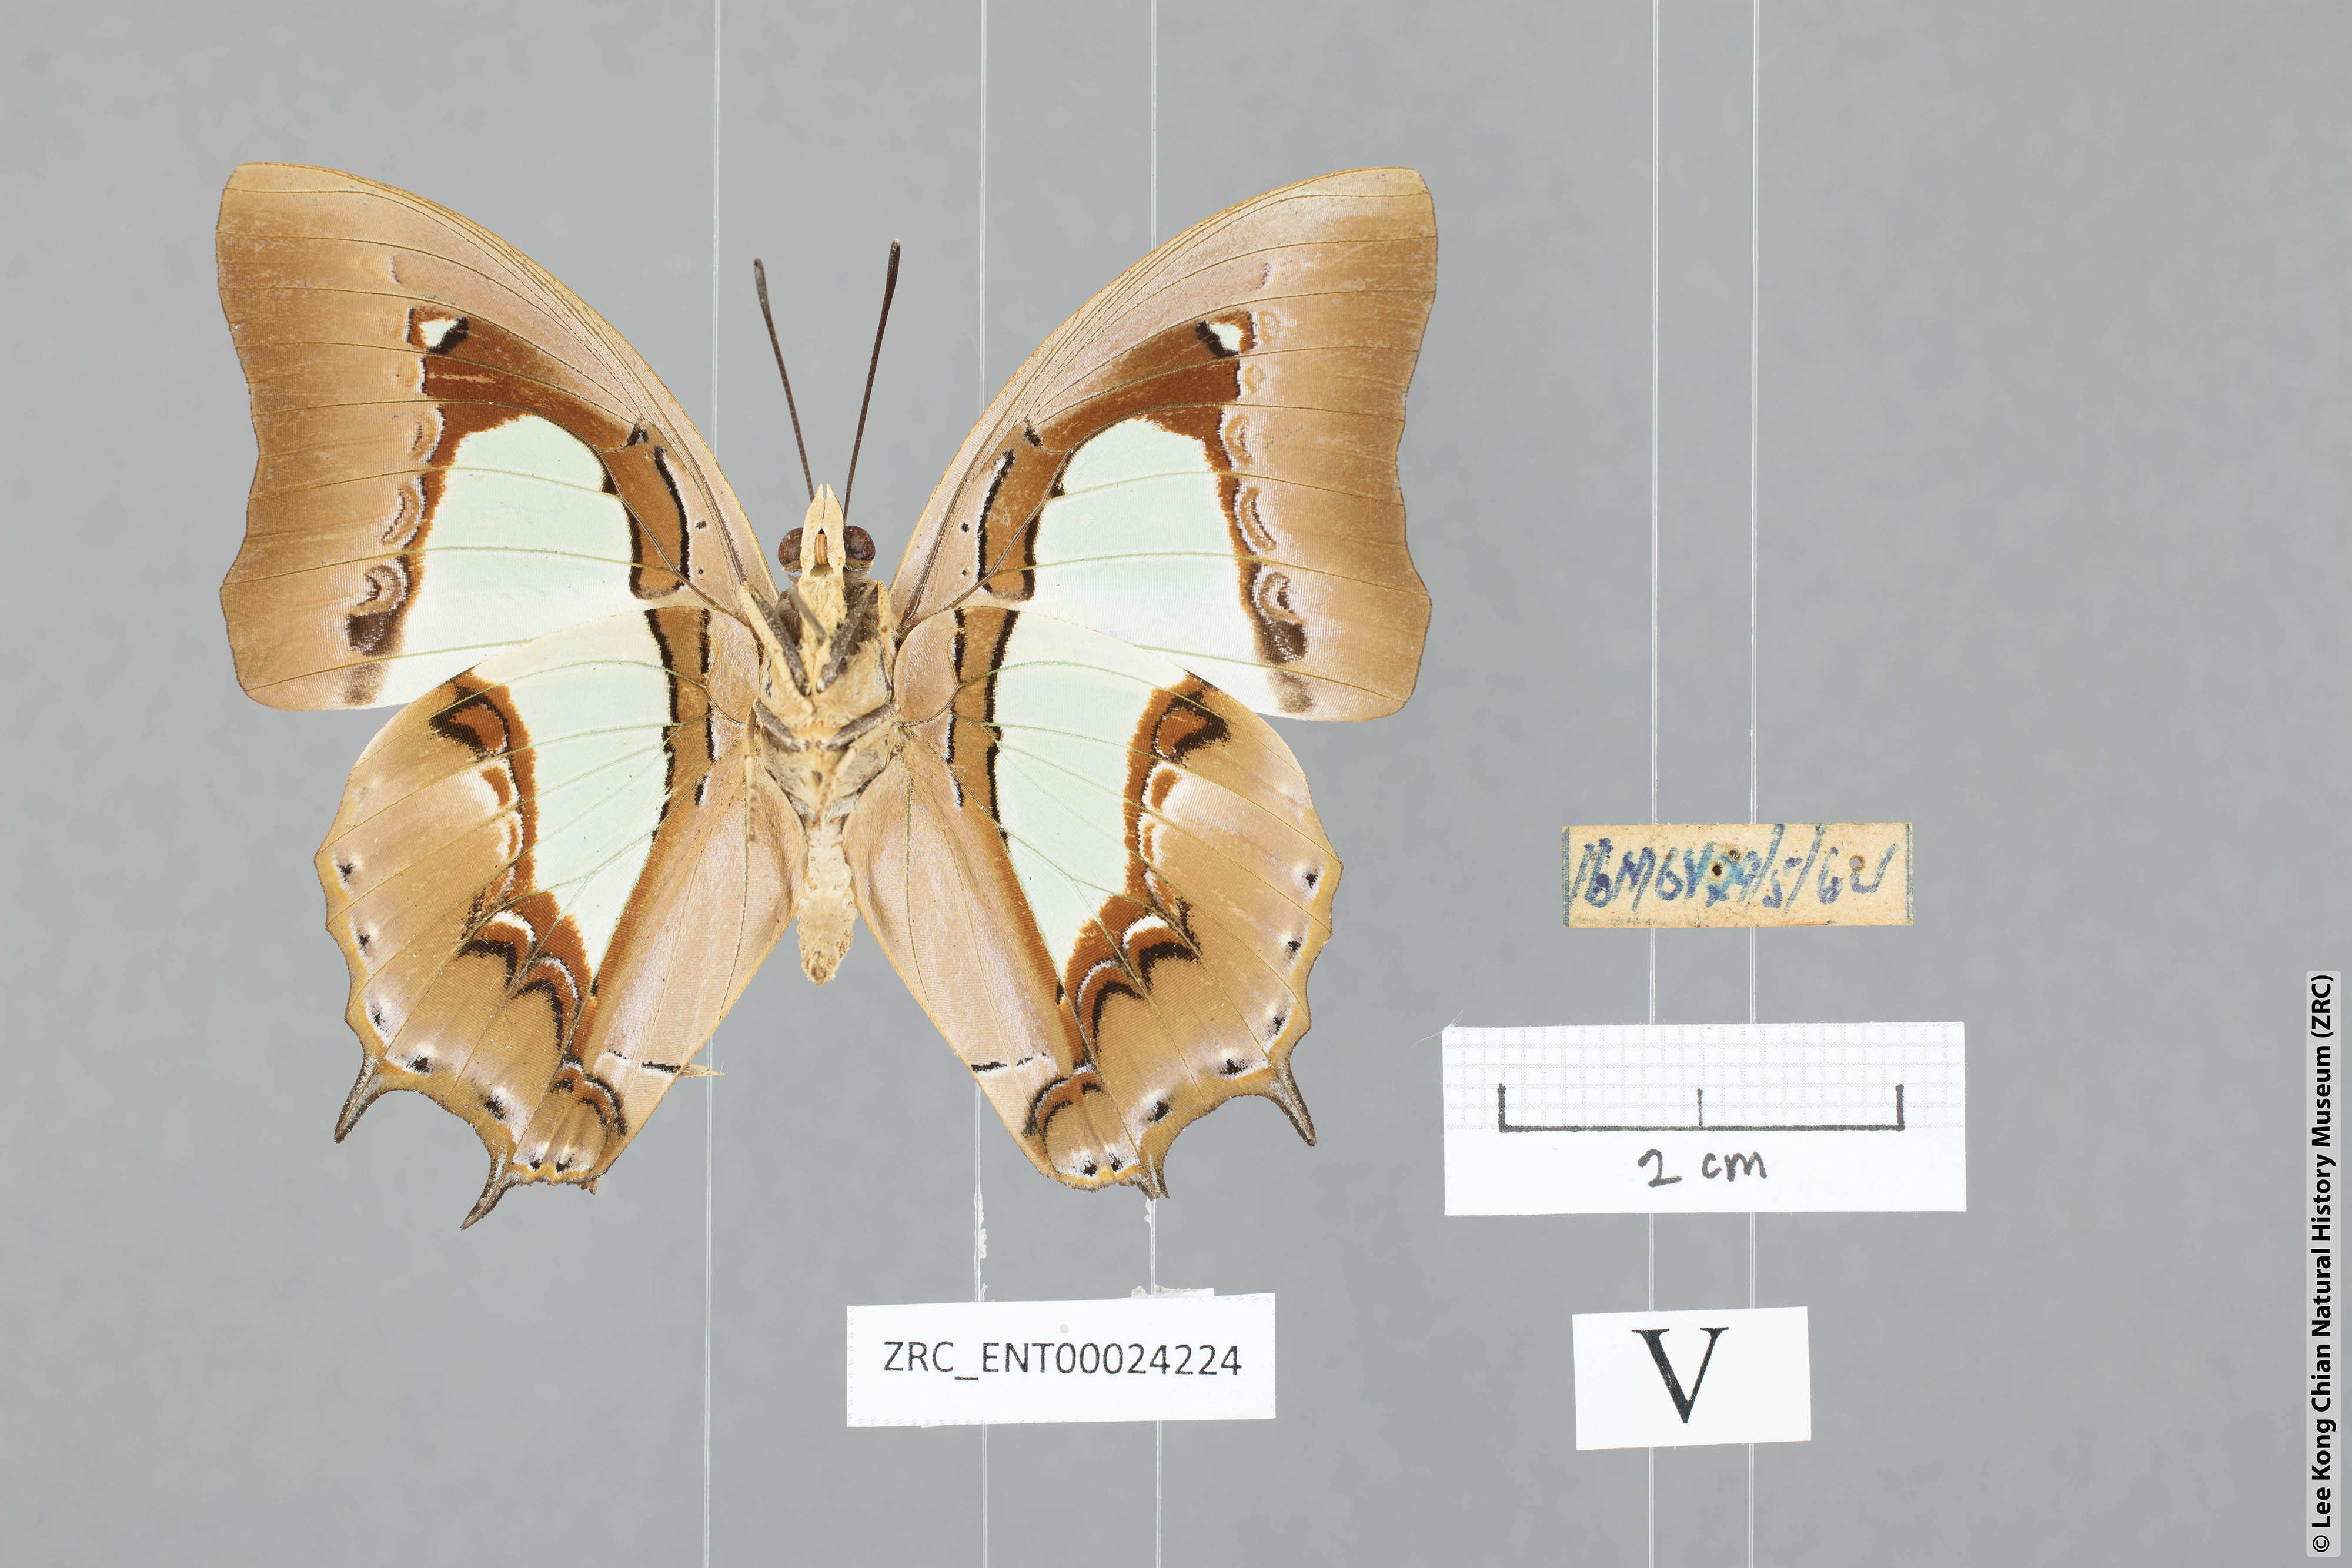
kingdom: Animalia
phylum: Arthropoda
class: Insecta
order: Lepidoptera
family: Nymphalidae
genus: Polyura
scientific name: Polyura hebe
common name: Plain nawab
